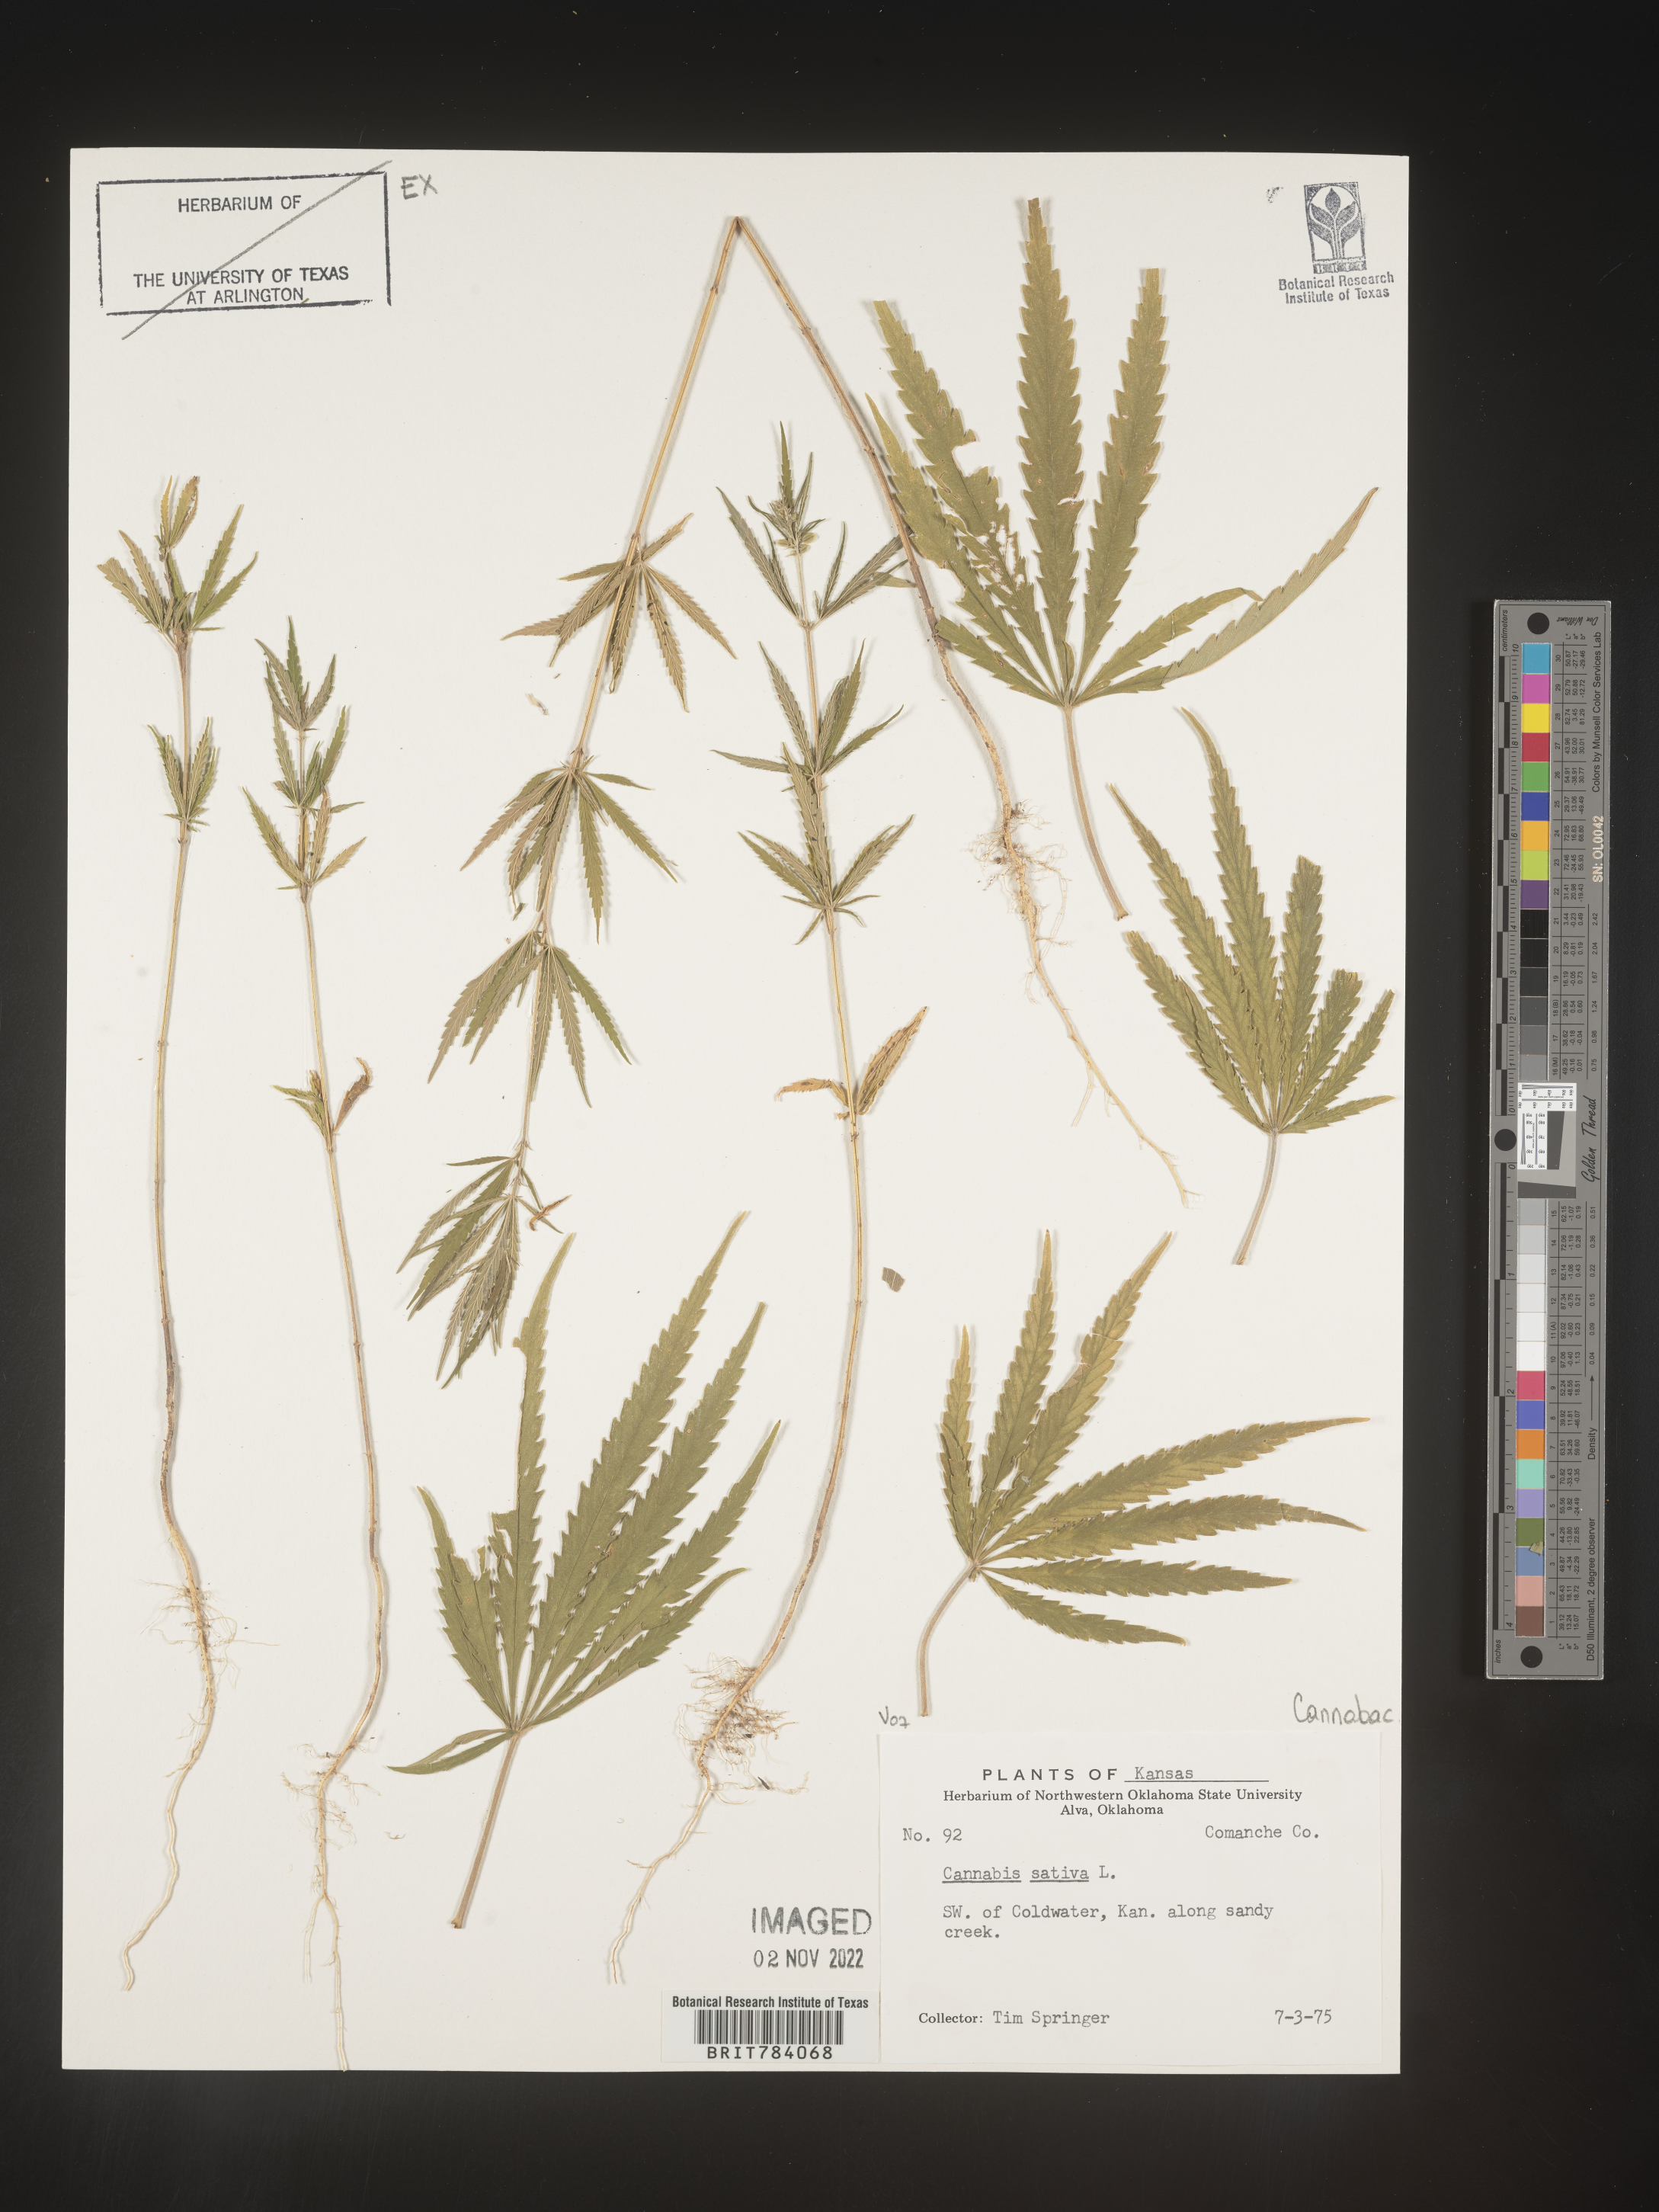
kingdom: Plantae
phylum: Tracheophyta
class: Magnoliopsida
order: Rosales
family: Cannabaceae
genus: Cannabis
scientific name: Cannabis sativa
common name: Hemp
